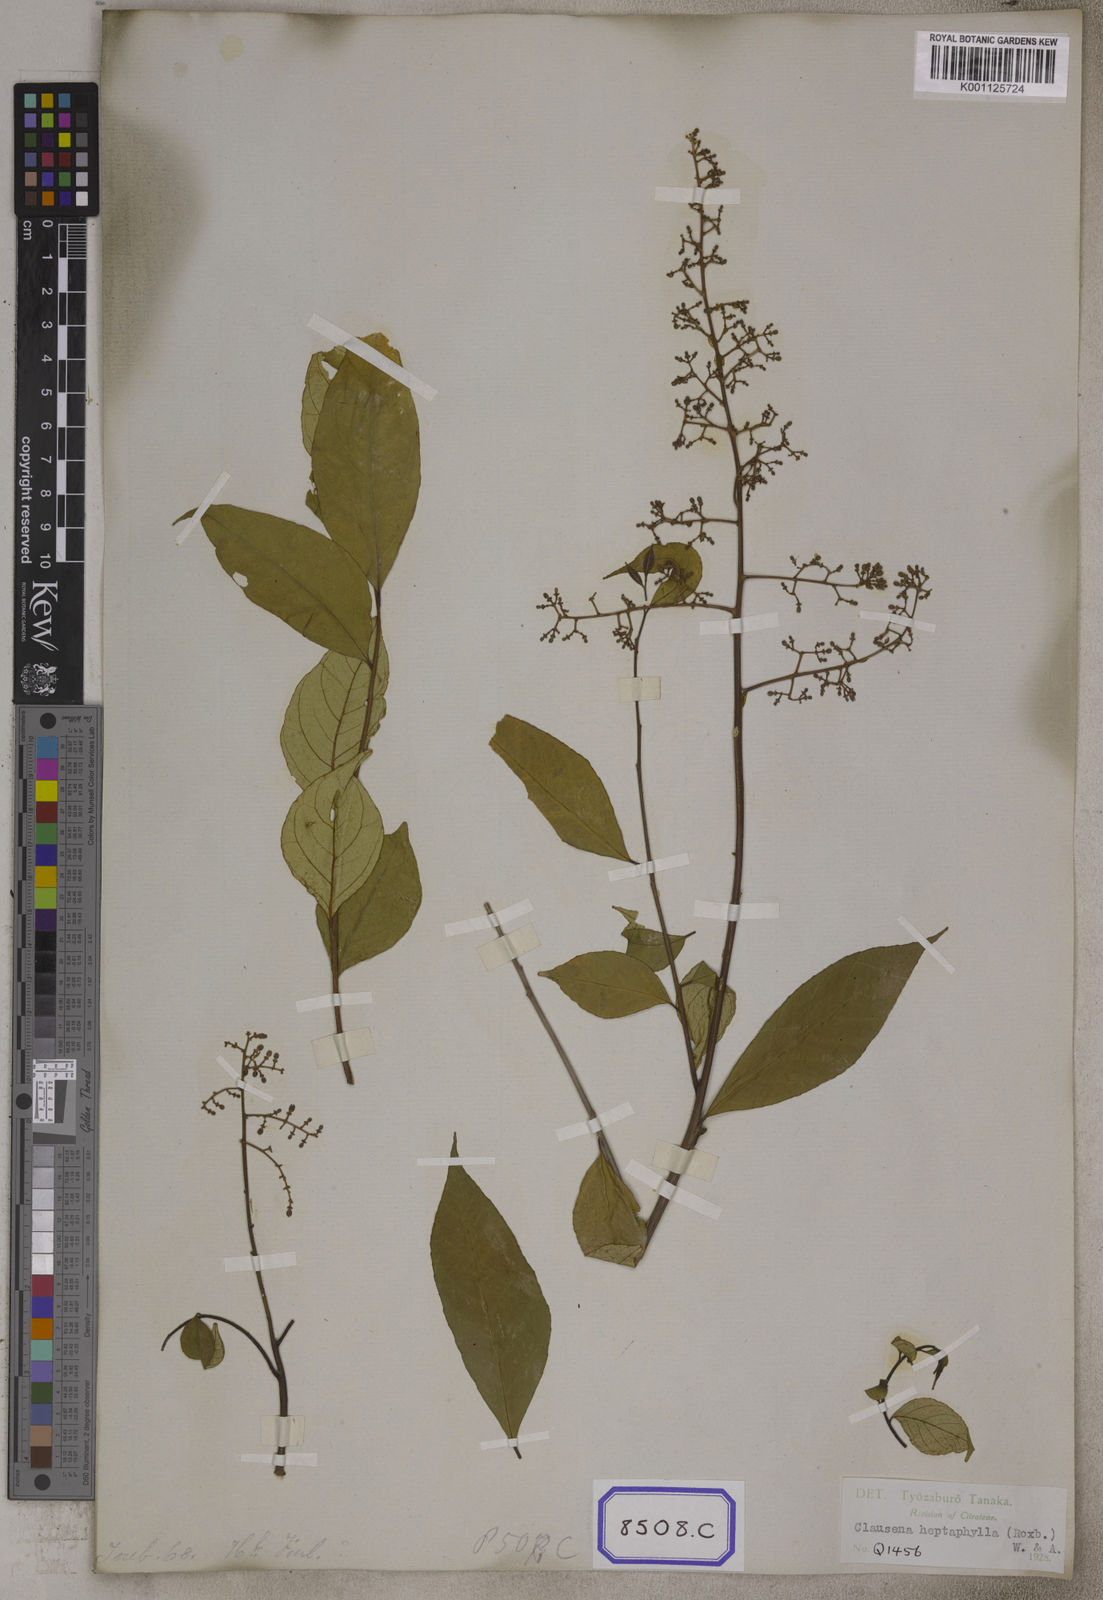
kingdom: Plantae
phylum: Tracheophyta
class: Magnoliopsida
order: Sapindales
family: Rutaceae
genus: Clausena
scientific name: Clausena heptaphylla
